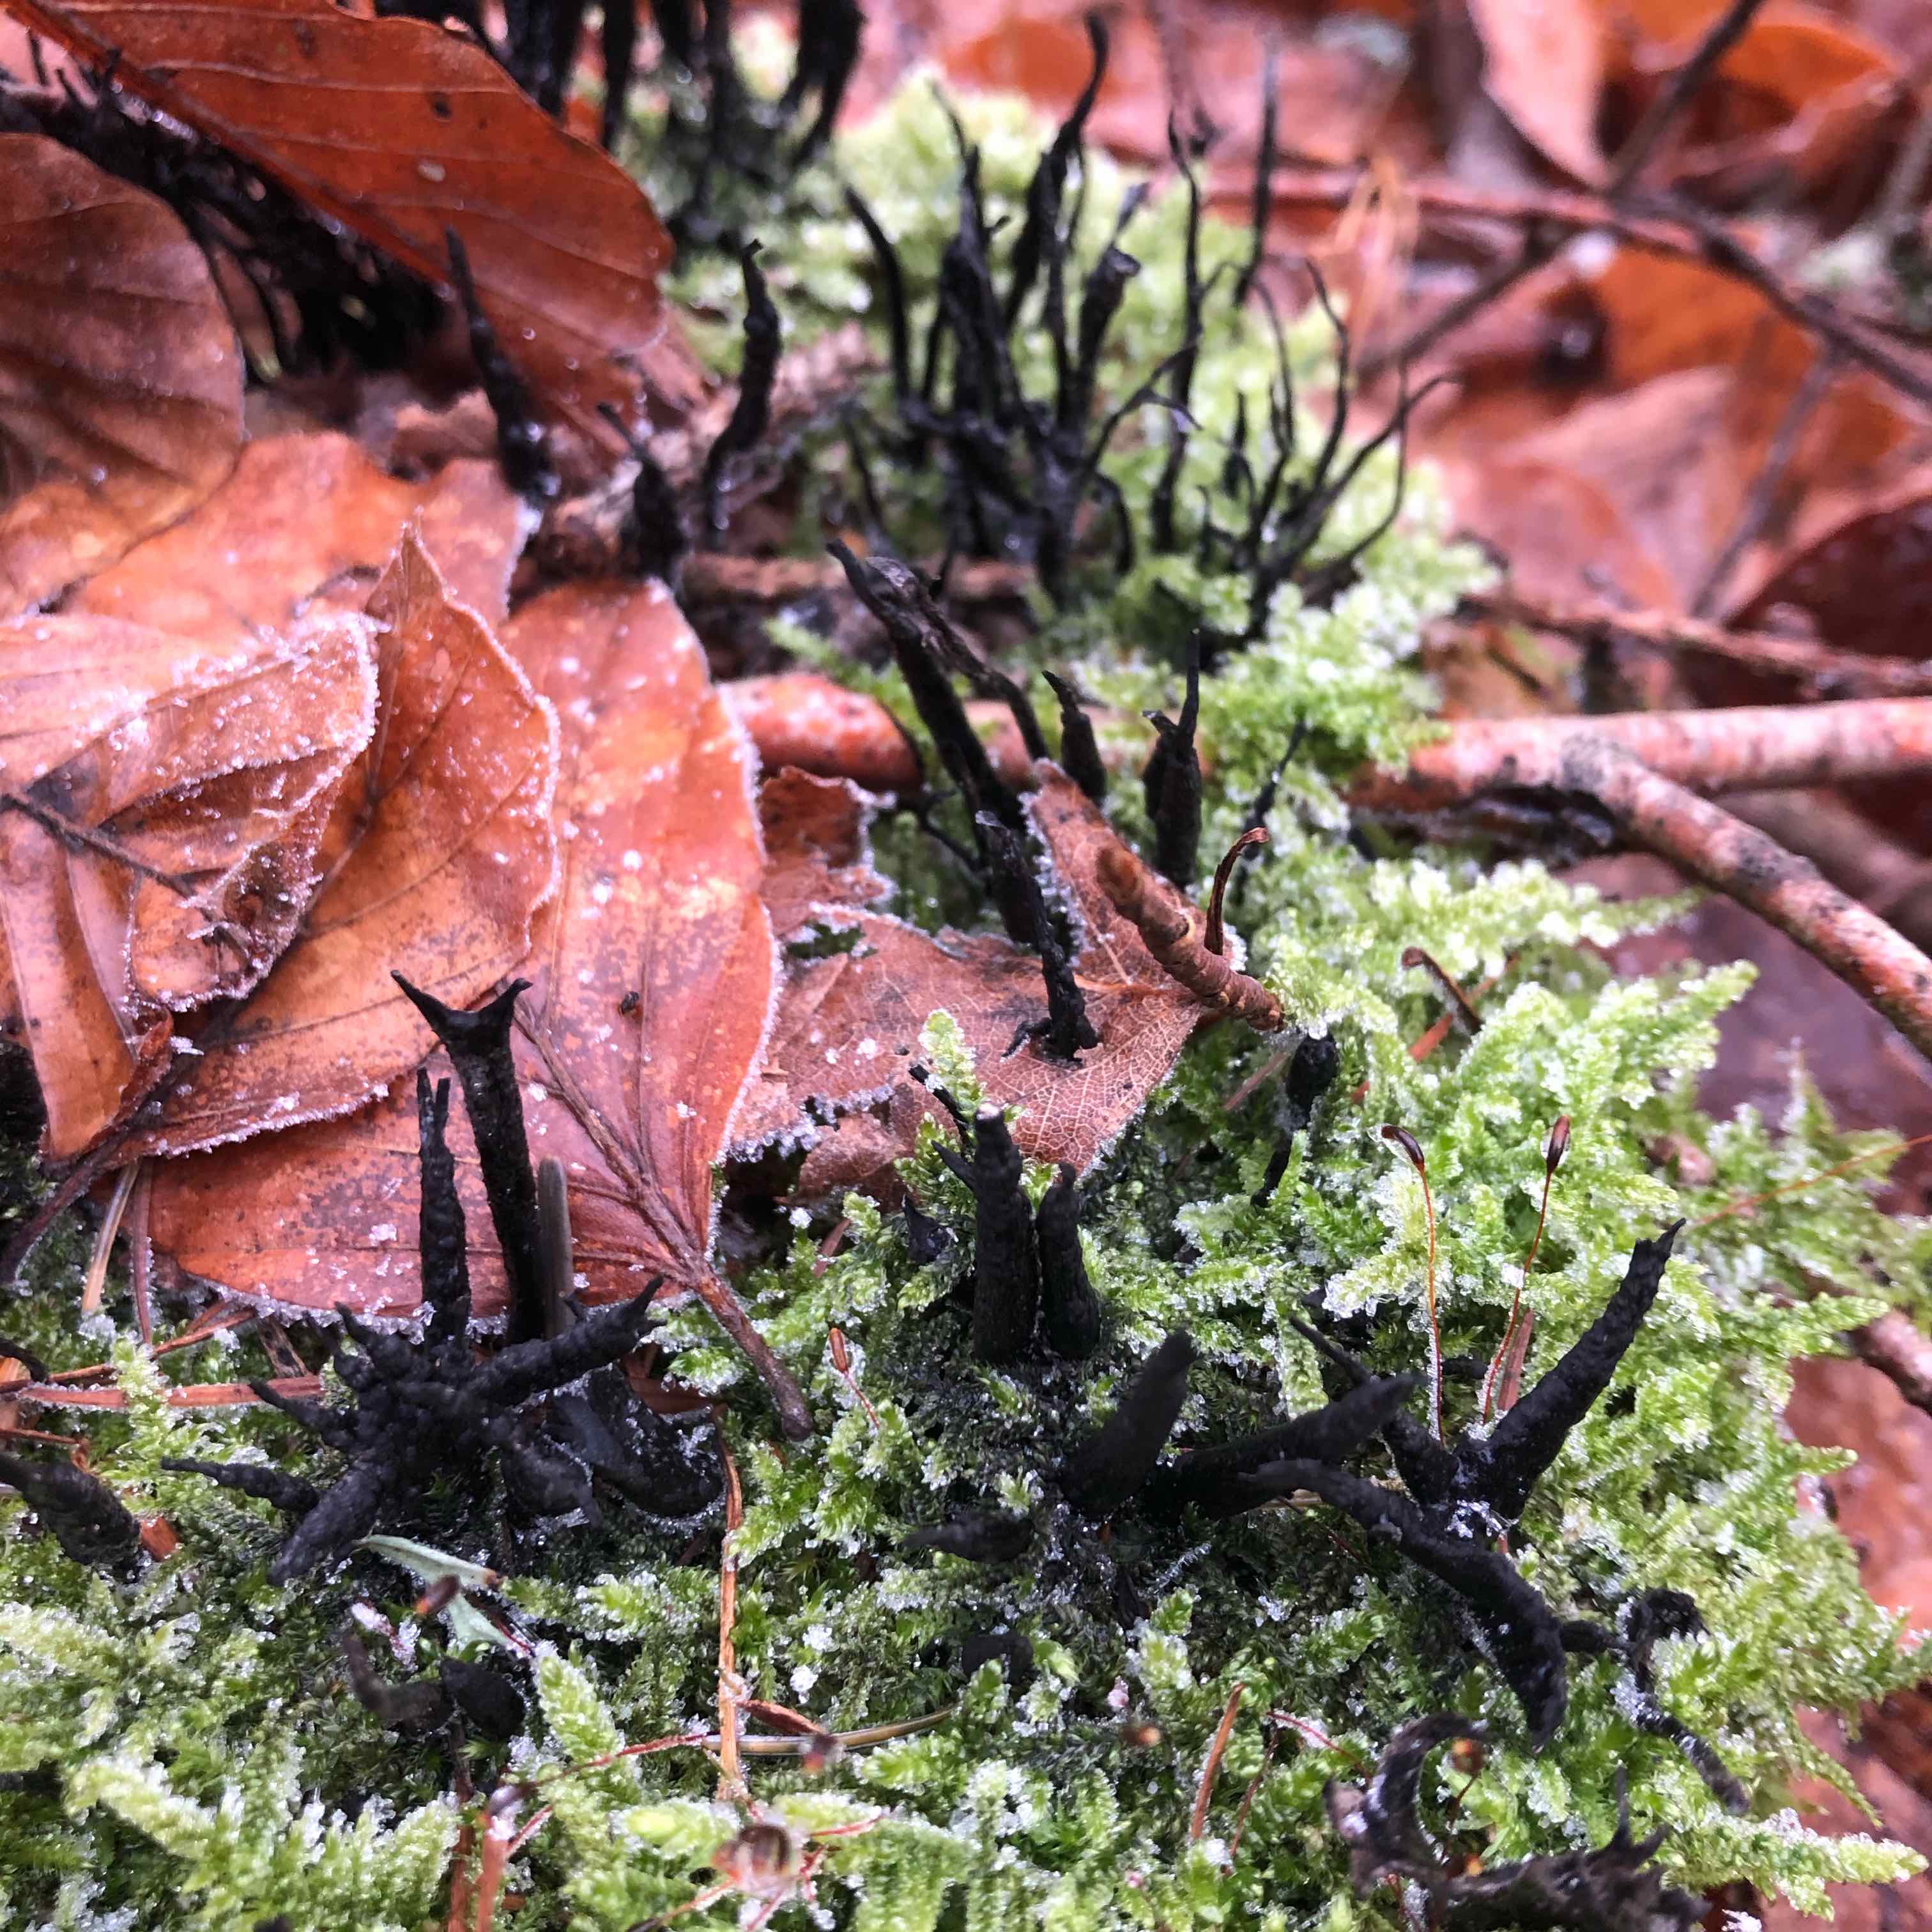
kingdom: Fungi
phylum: Ascomycota
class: Sordariomycetes
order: Xylariales
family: Xylariaceae
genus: Xylaria
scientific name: Xylaria hypoxylon
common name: grenet stødsvamp
